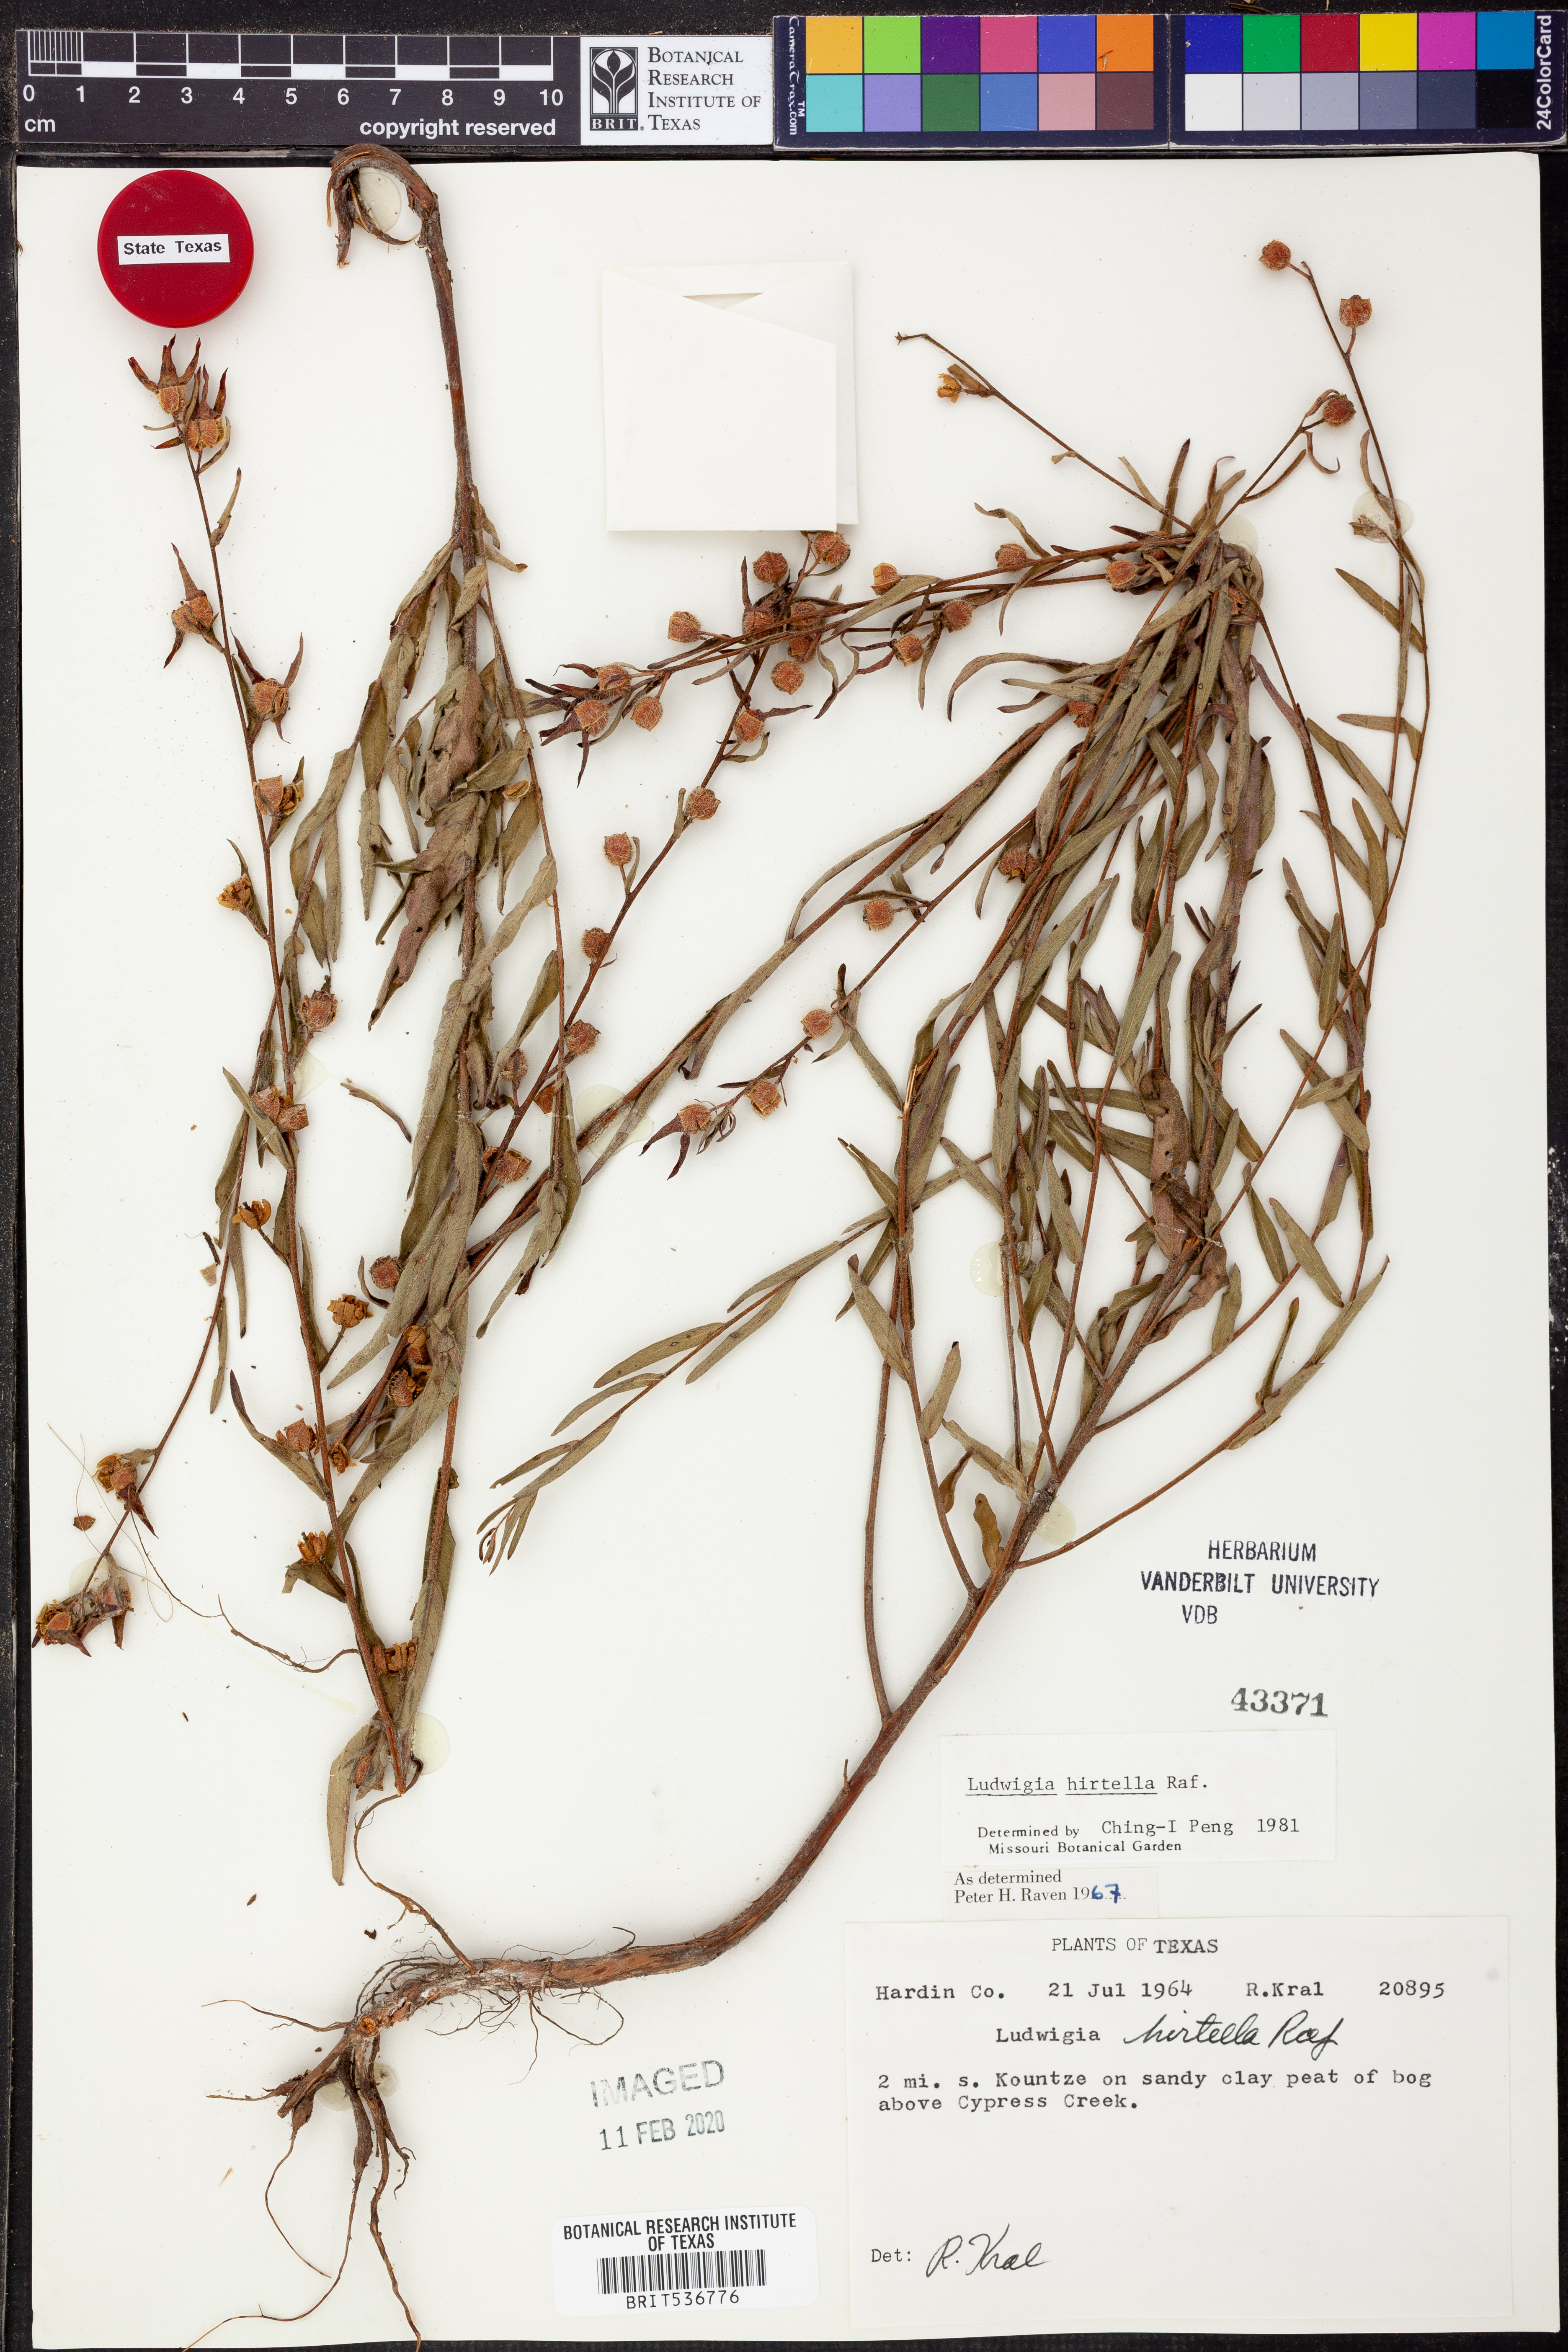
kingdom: Plantae
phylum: Tracheophyta
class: Magnoliopsida
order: Myrtales
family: Onagraceae
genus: Ludwigia
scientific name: Ludwigia hirtella
